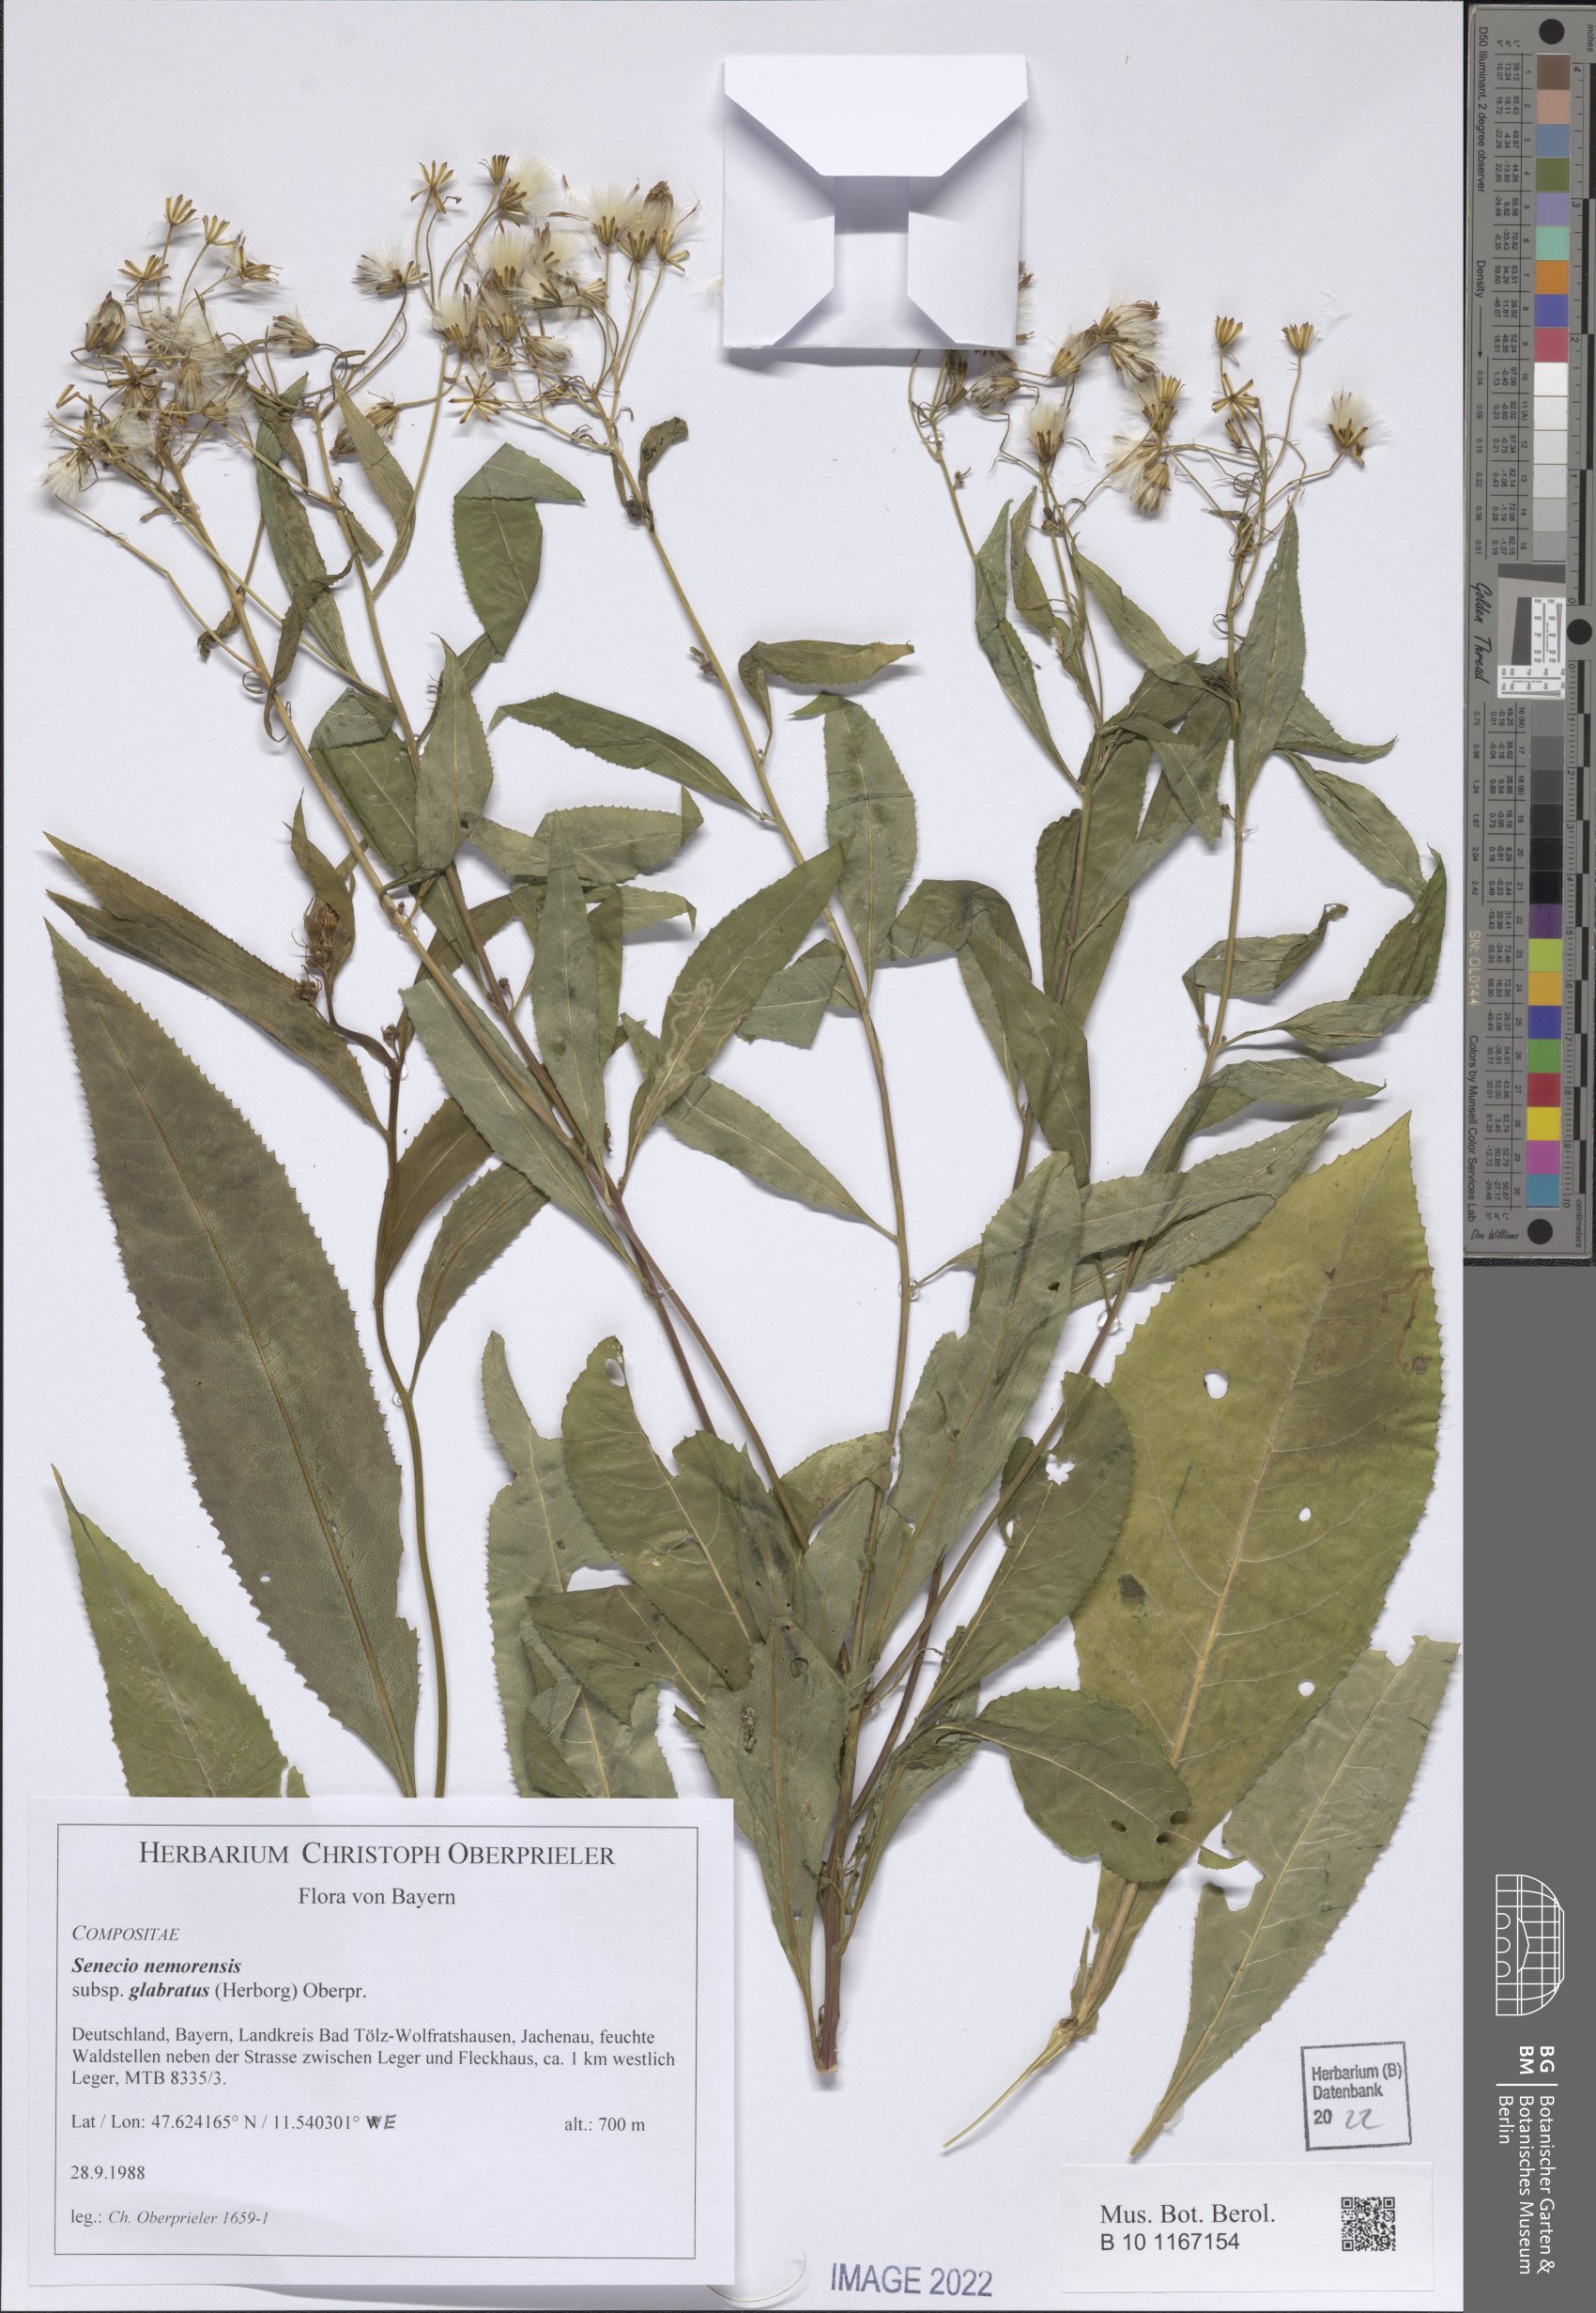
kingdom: Plantae
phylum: Tracheophyta
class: Magnoliopsida
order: Asterales
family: Asteraceae
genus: Senecio
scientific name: Senecio germanicus
